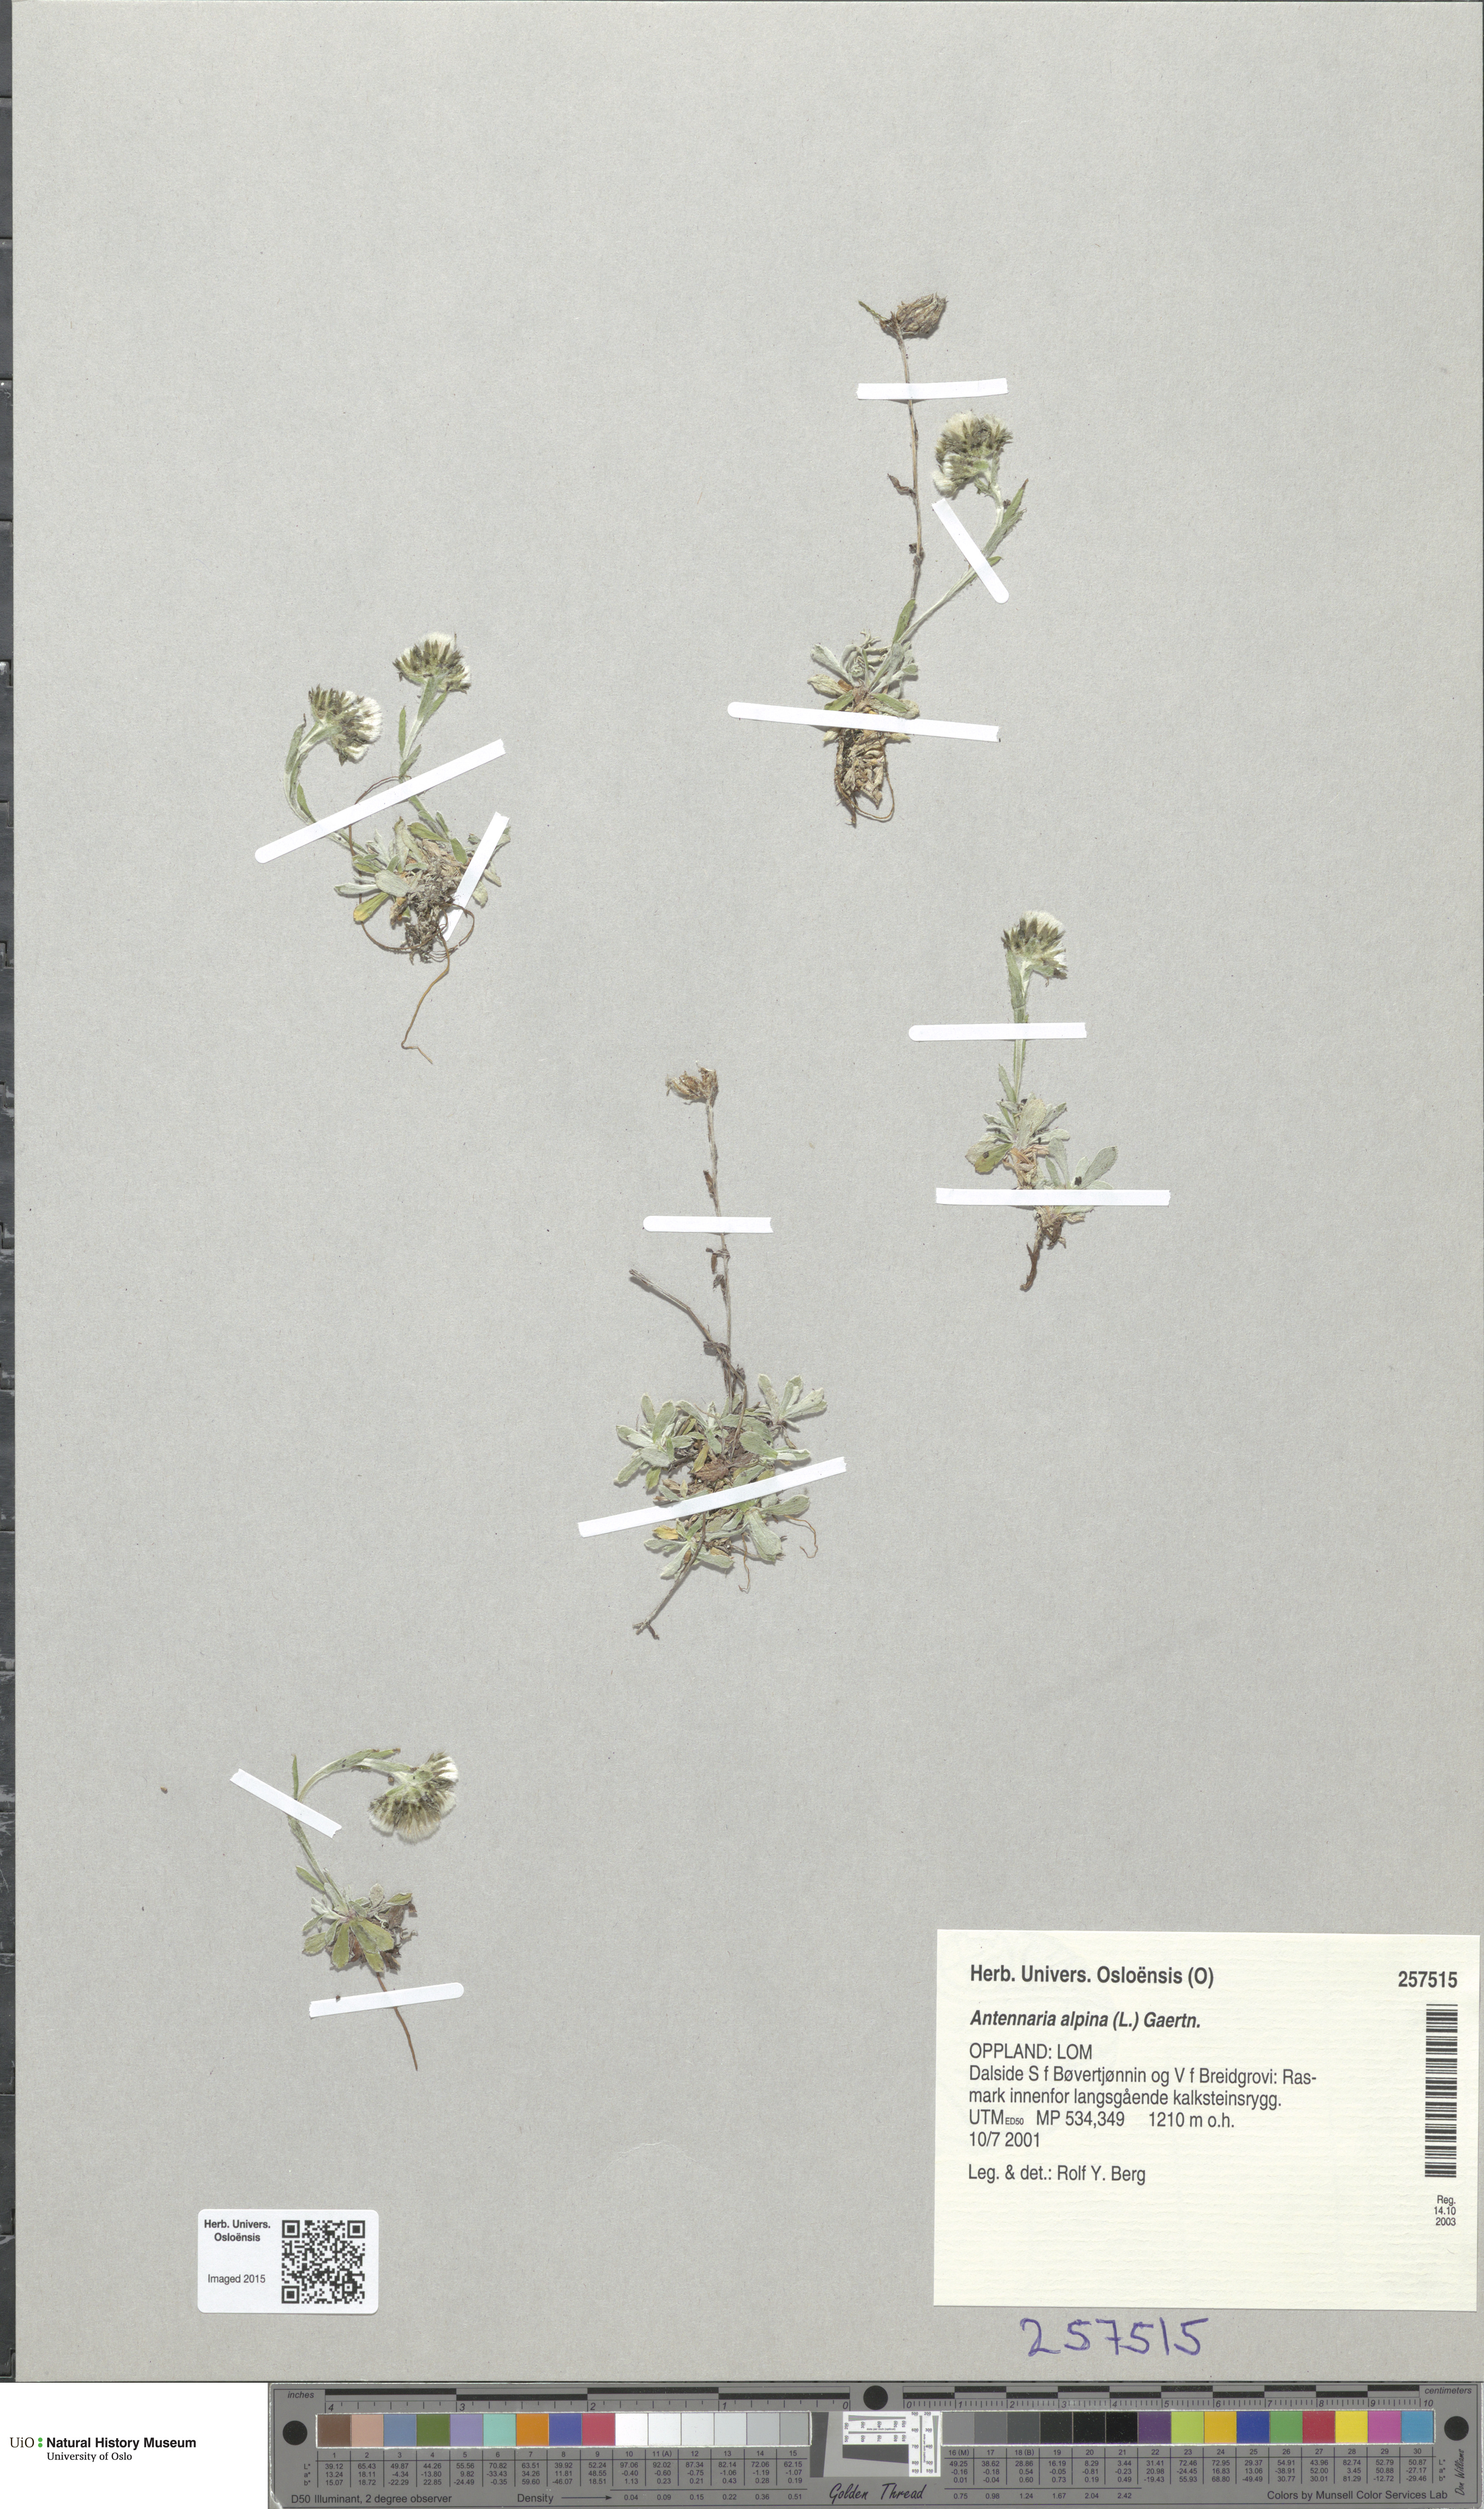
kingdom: Plantae
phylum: Tracheophyta
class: Magnoliopsida
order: Asterales
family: Asteraceae
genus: Antennaria
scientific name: Antennaria alpina
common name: Alpine pussytoes
